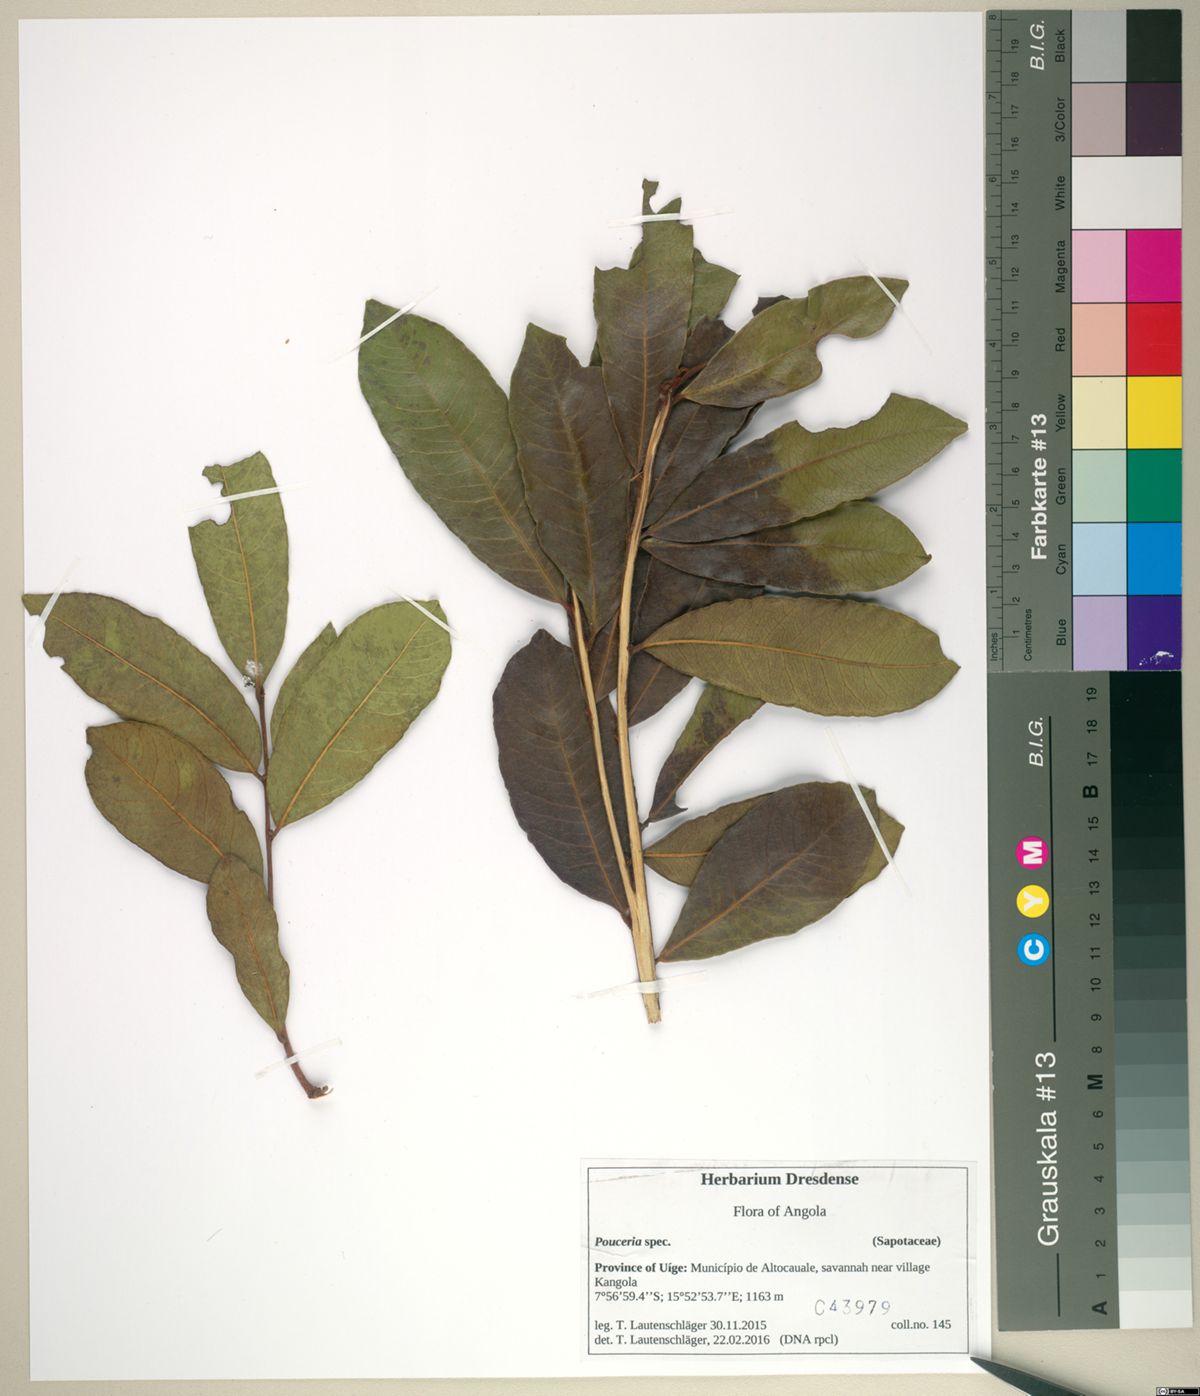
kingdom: Plantae
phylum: Tracheophyta
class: Magnoliopsida
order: Ericales
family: Sapotaceae
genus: Donella
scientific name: Donella bangweolensis
